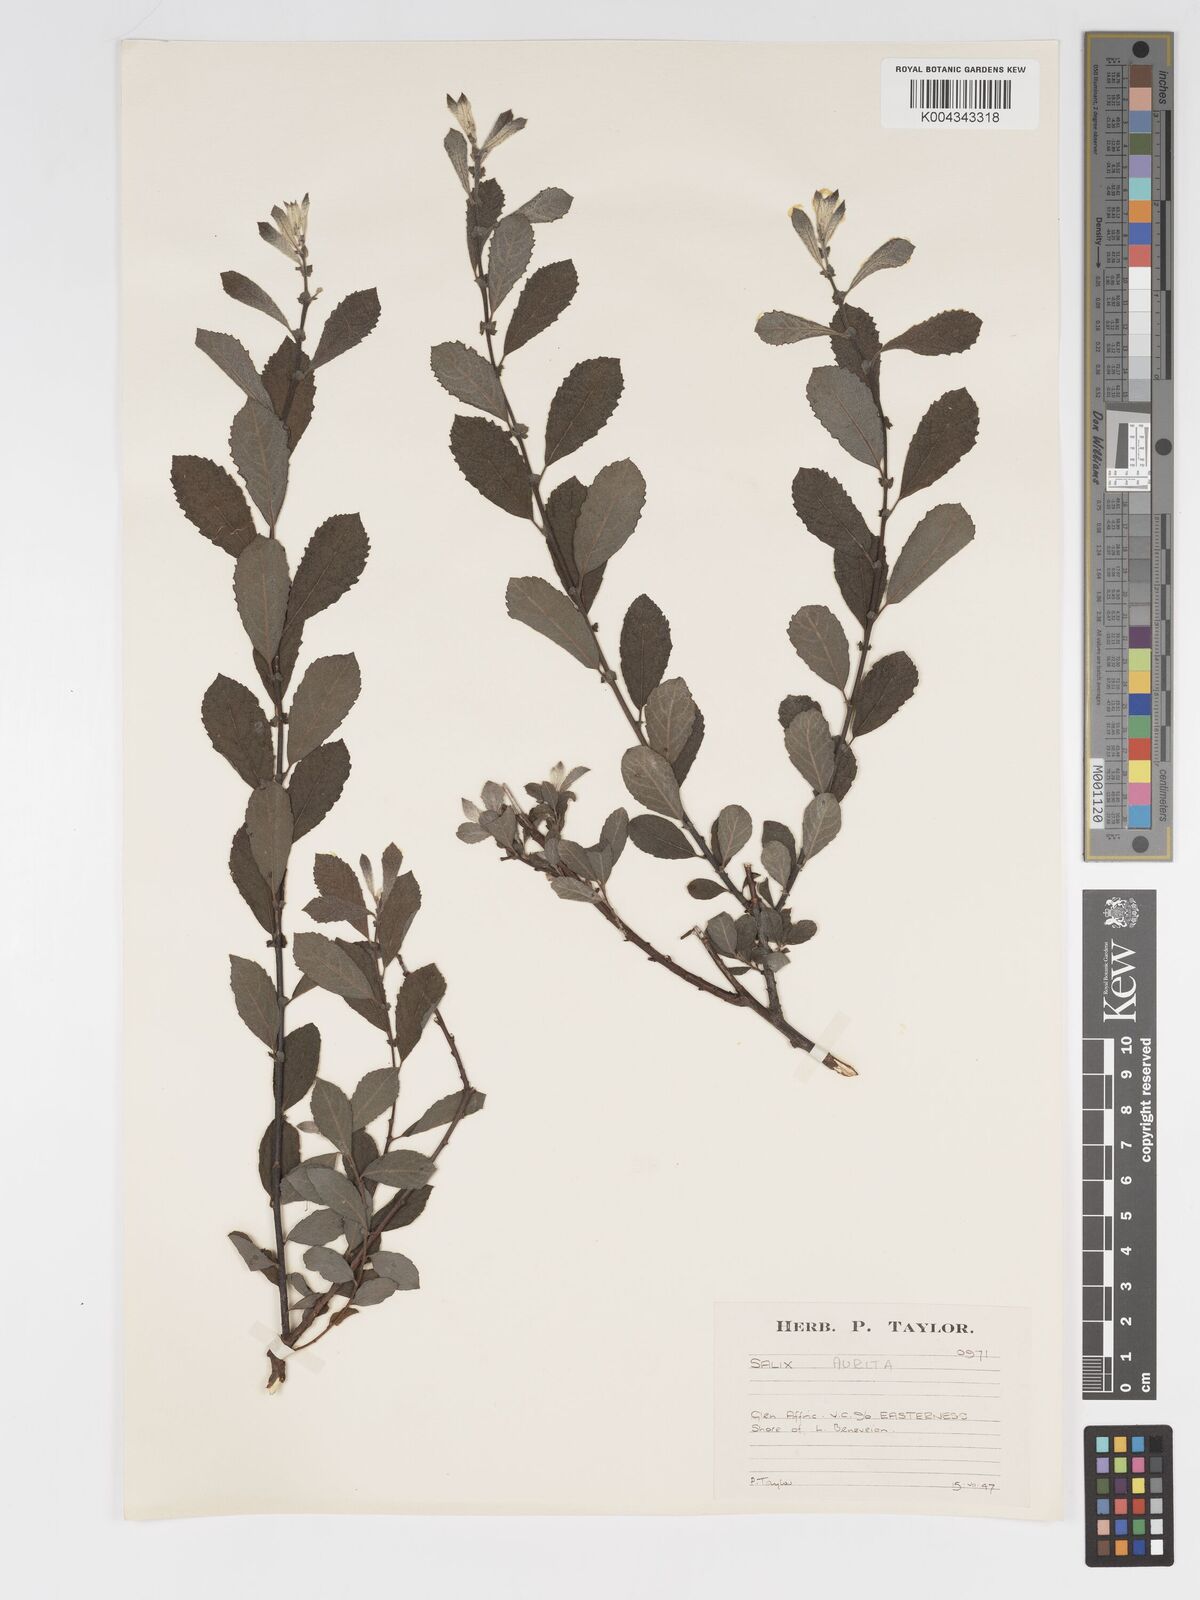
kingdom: Plantae
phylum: Tracheophyta
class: Magnoliopsida
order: Malpighiales
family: Salicaceae
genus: Salix
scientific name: Salix aurita
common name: Eared willow
